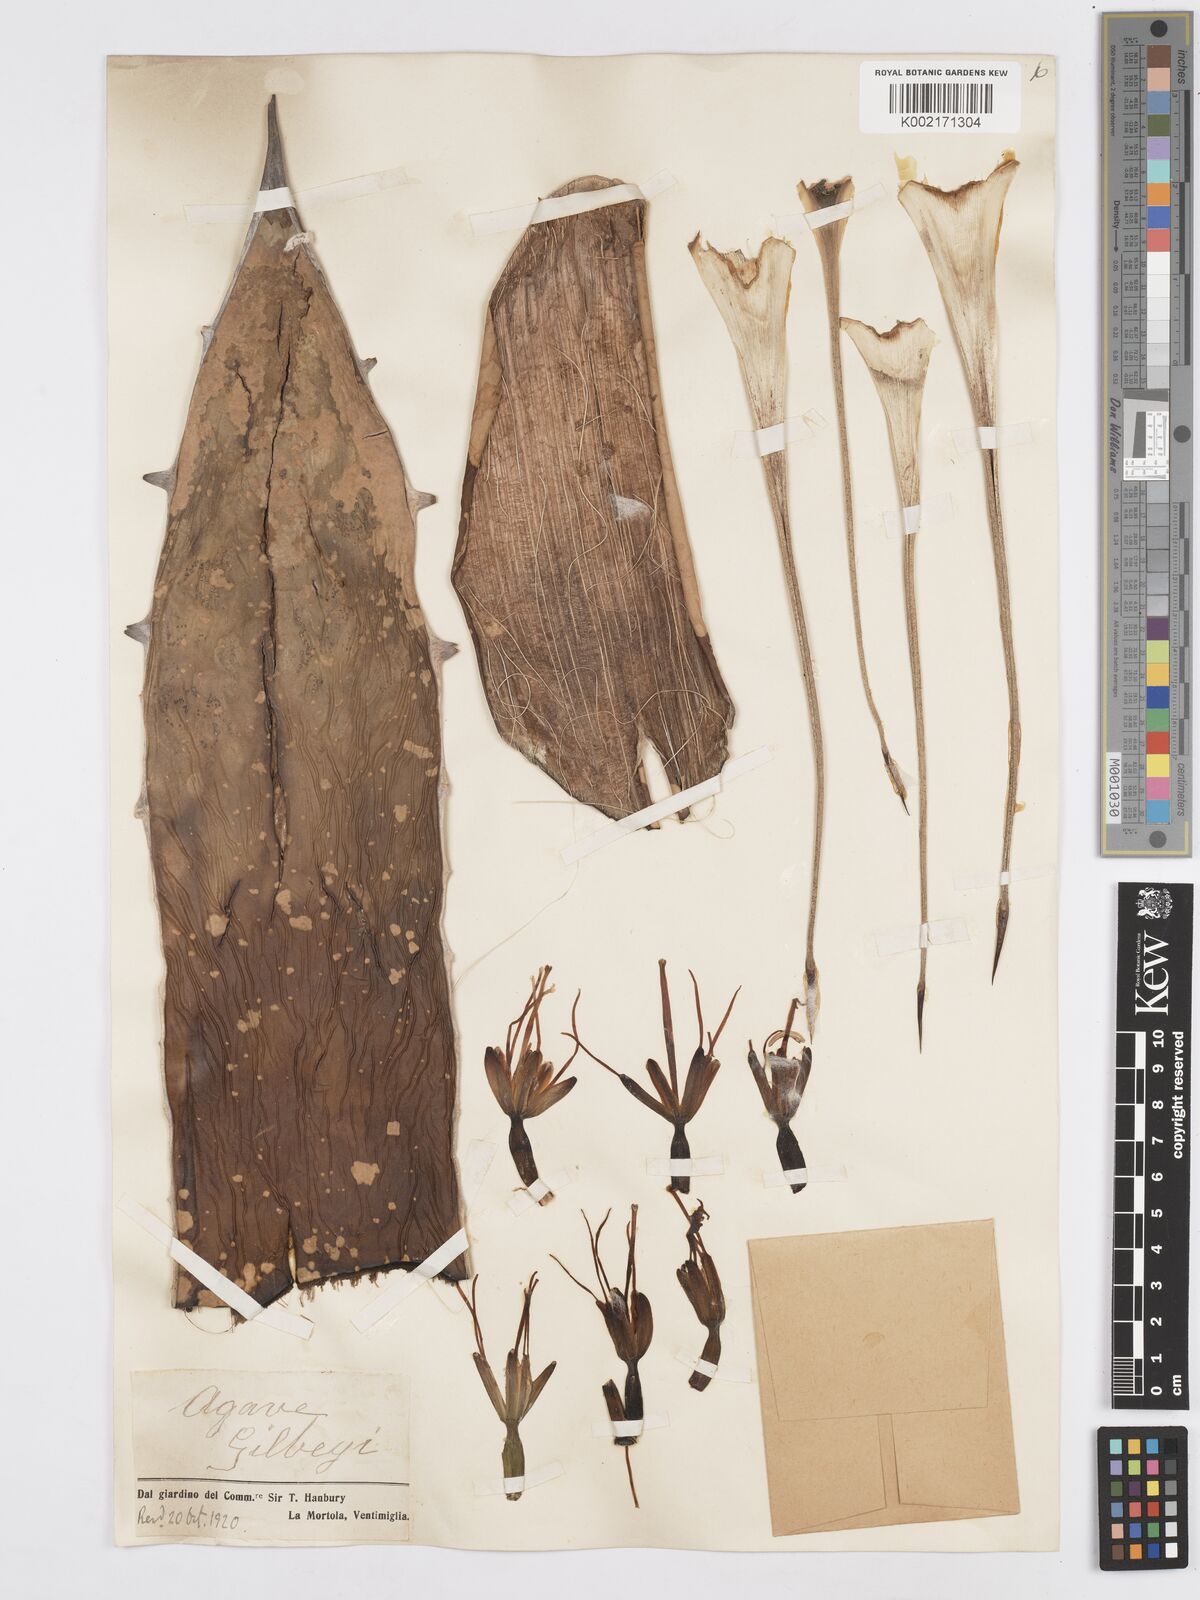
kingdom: Plantae
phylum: Tracheophyta
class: Liliopsida
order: Asparagales
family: Asparagaceae
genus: Agave
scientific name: Agave horrida
